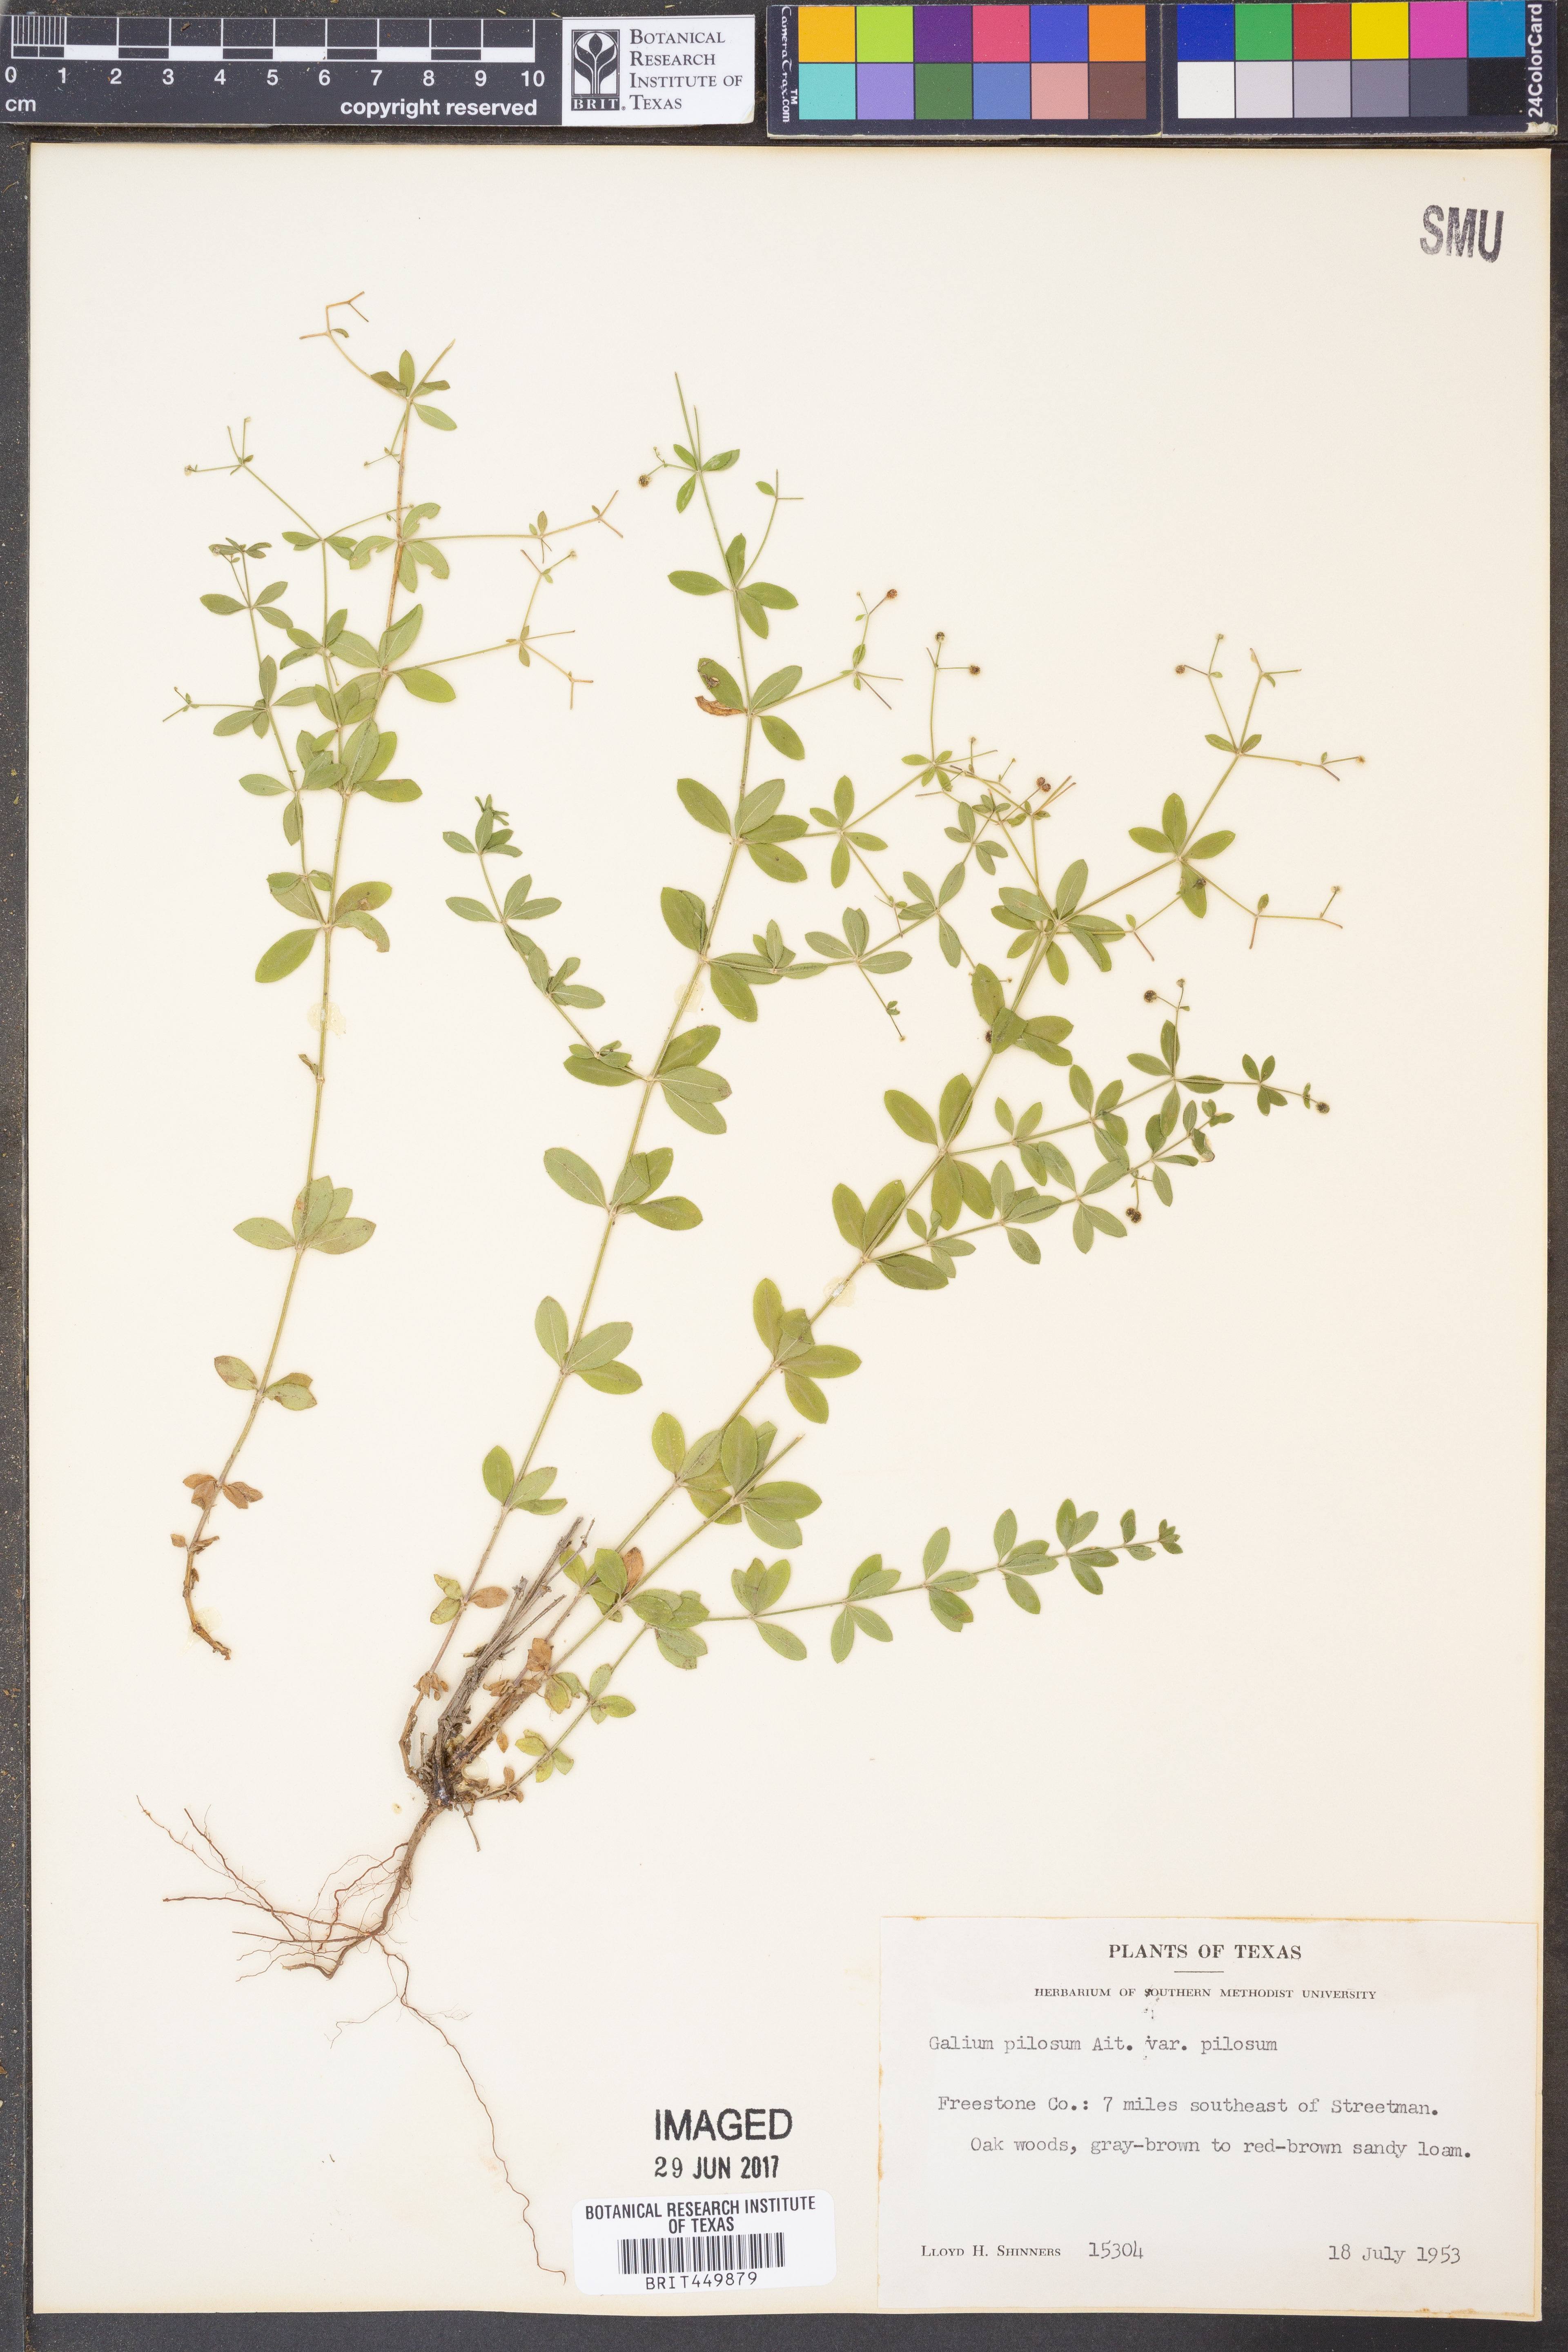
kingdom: Plantae
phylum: Tracheophyta
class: Magnoliopsida
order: Gentianales
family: Rubiaceae
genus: Galium
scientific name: Galium pilosum
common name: Hairy bedstraw
